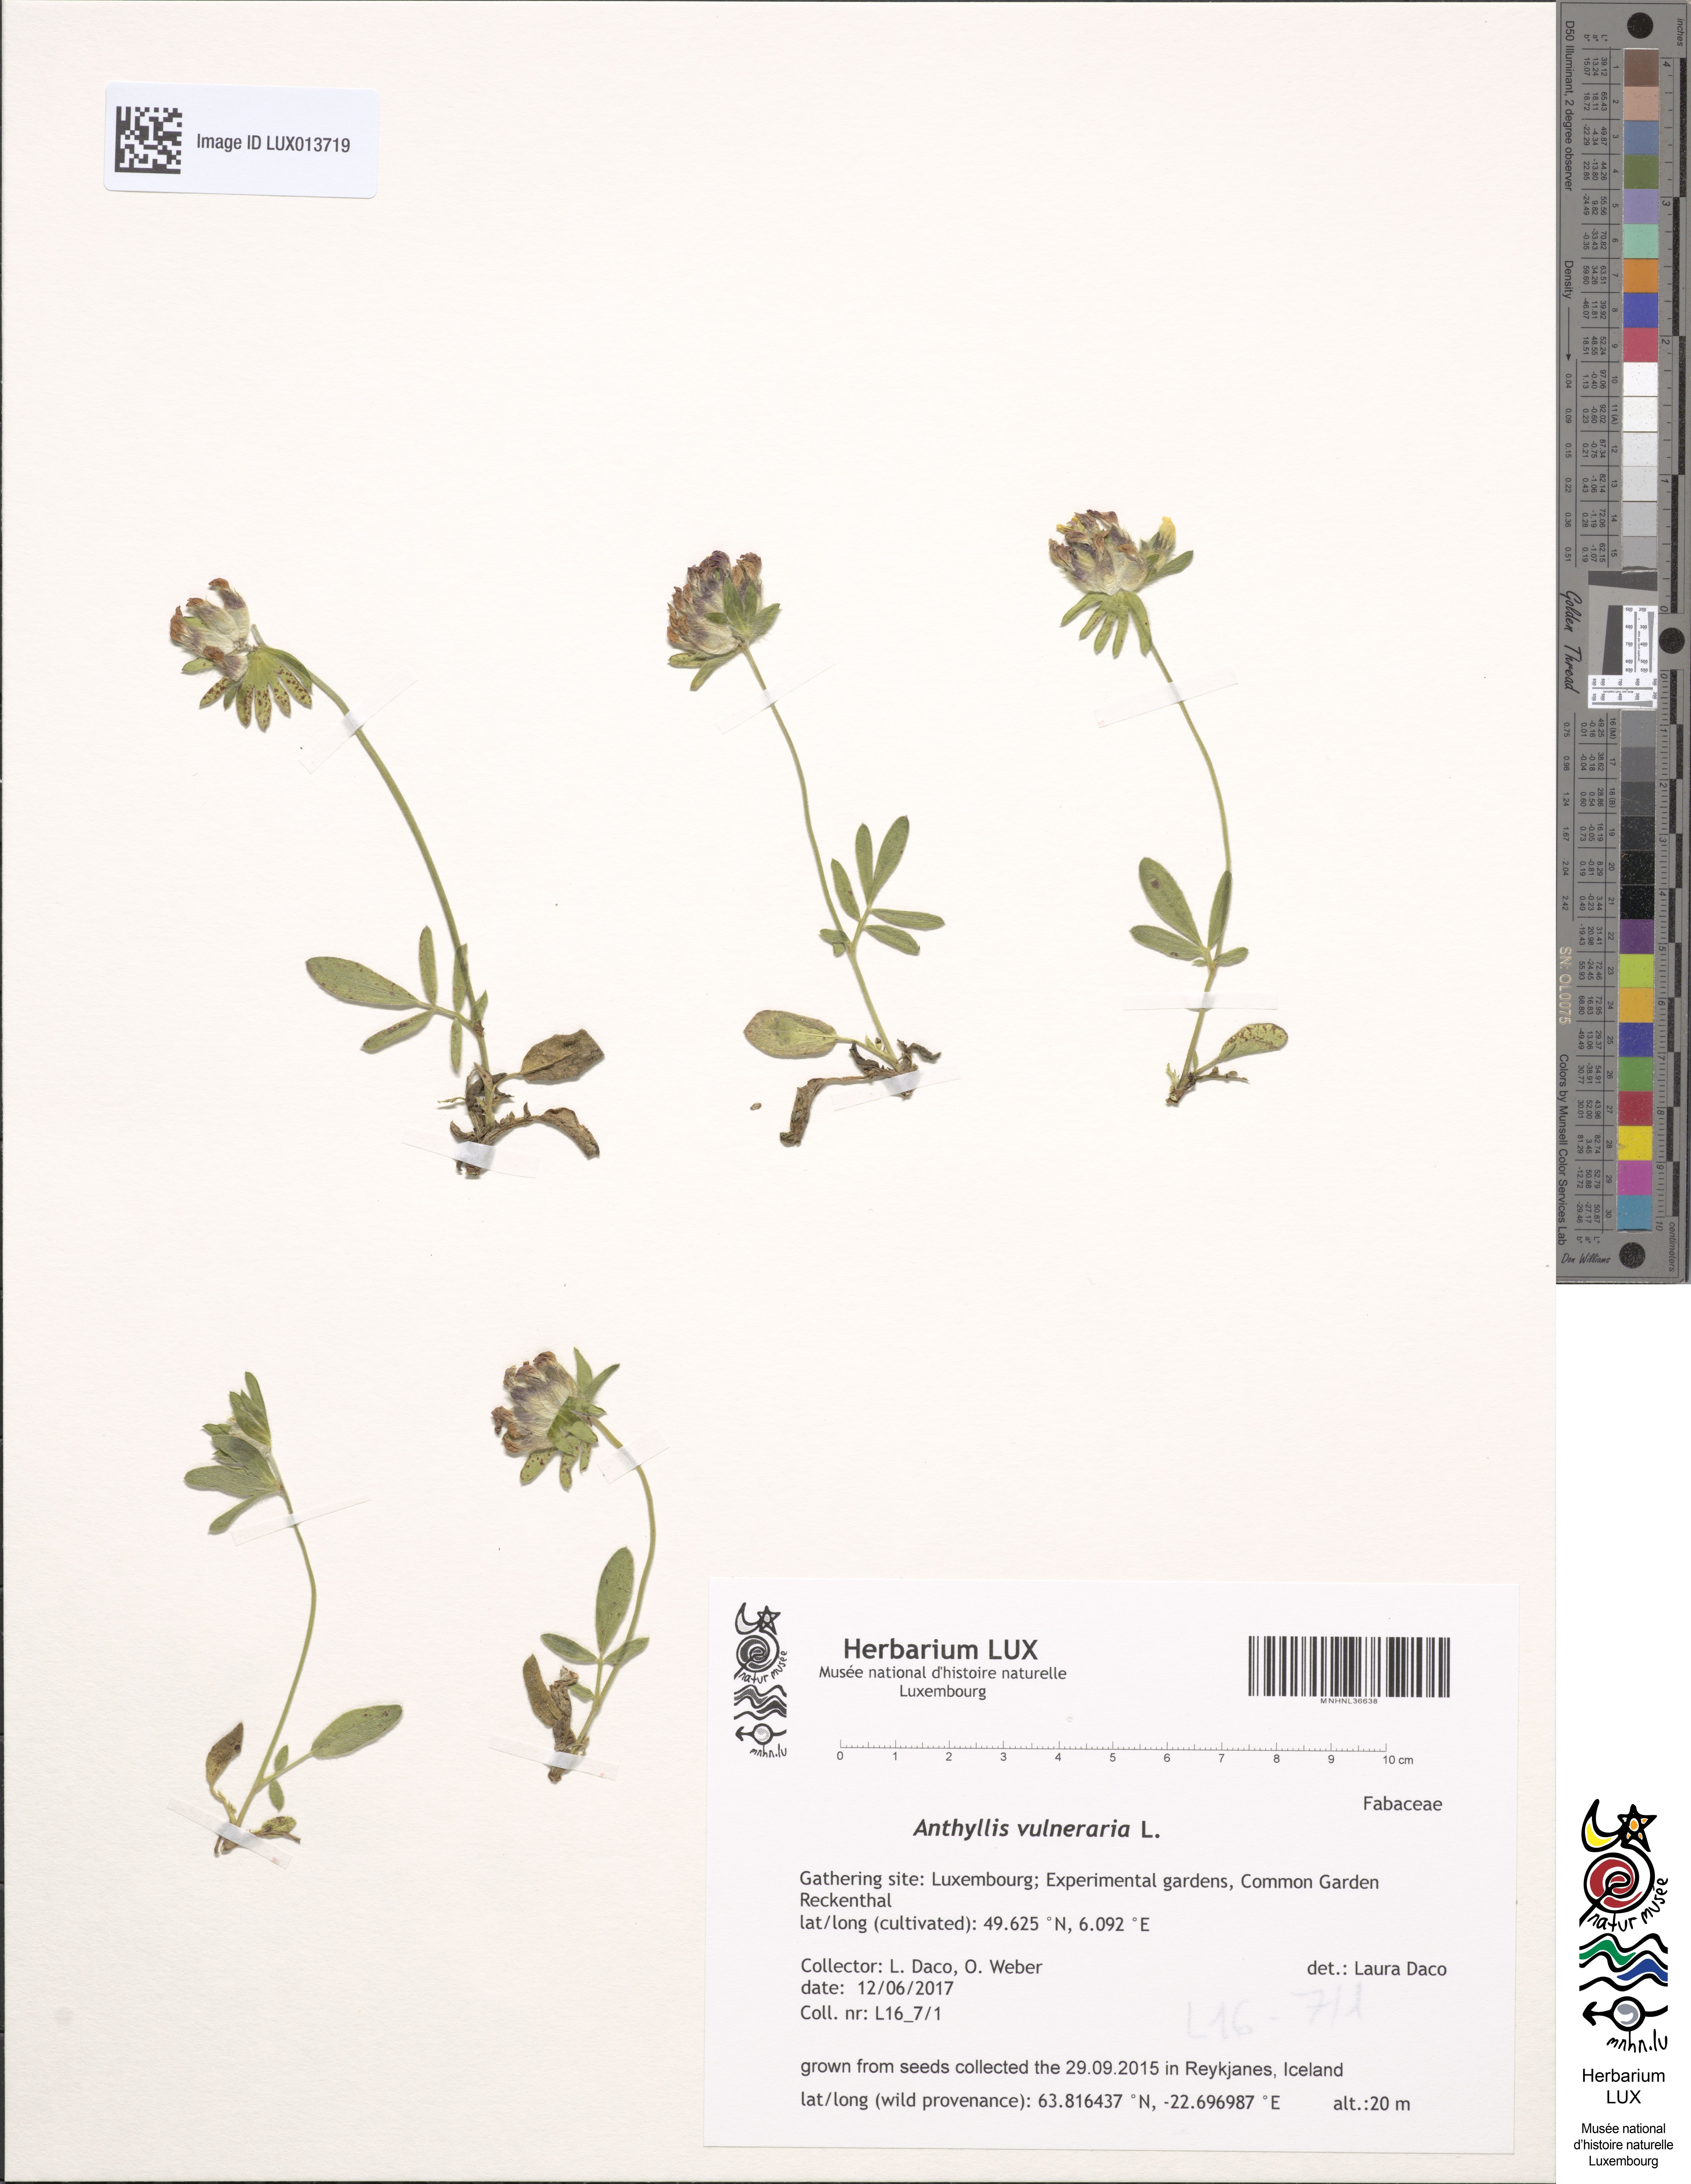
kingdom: Plantae
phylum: Tracheophyta
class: Magnoliopsida
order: Fabales
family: Fabaceae
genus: Anthyllis
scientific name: Anthyllis vulneraria
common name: Kidney vetch
